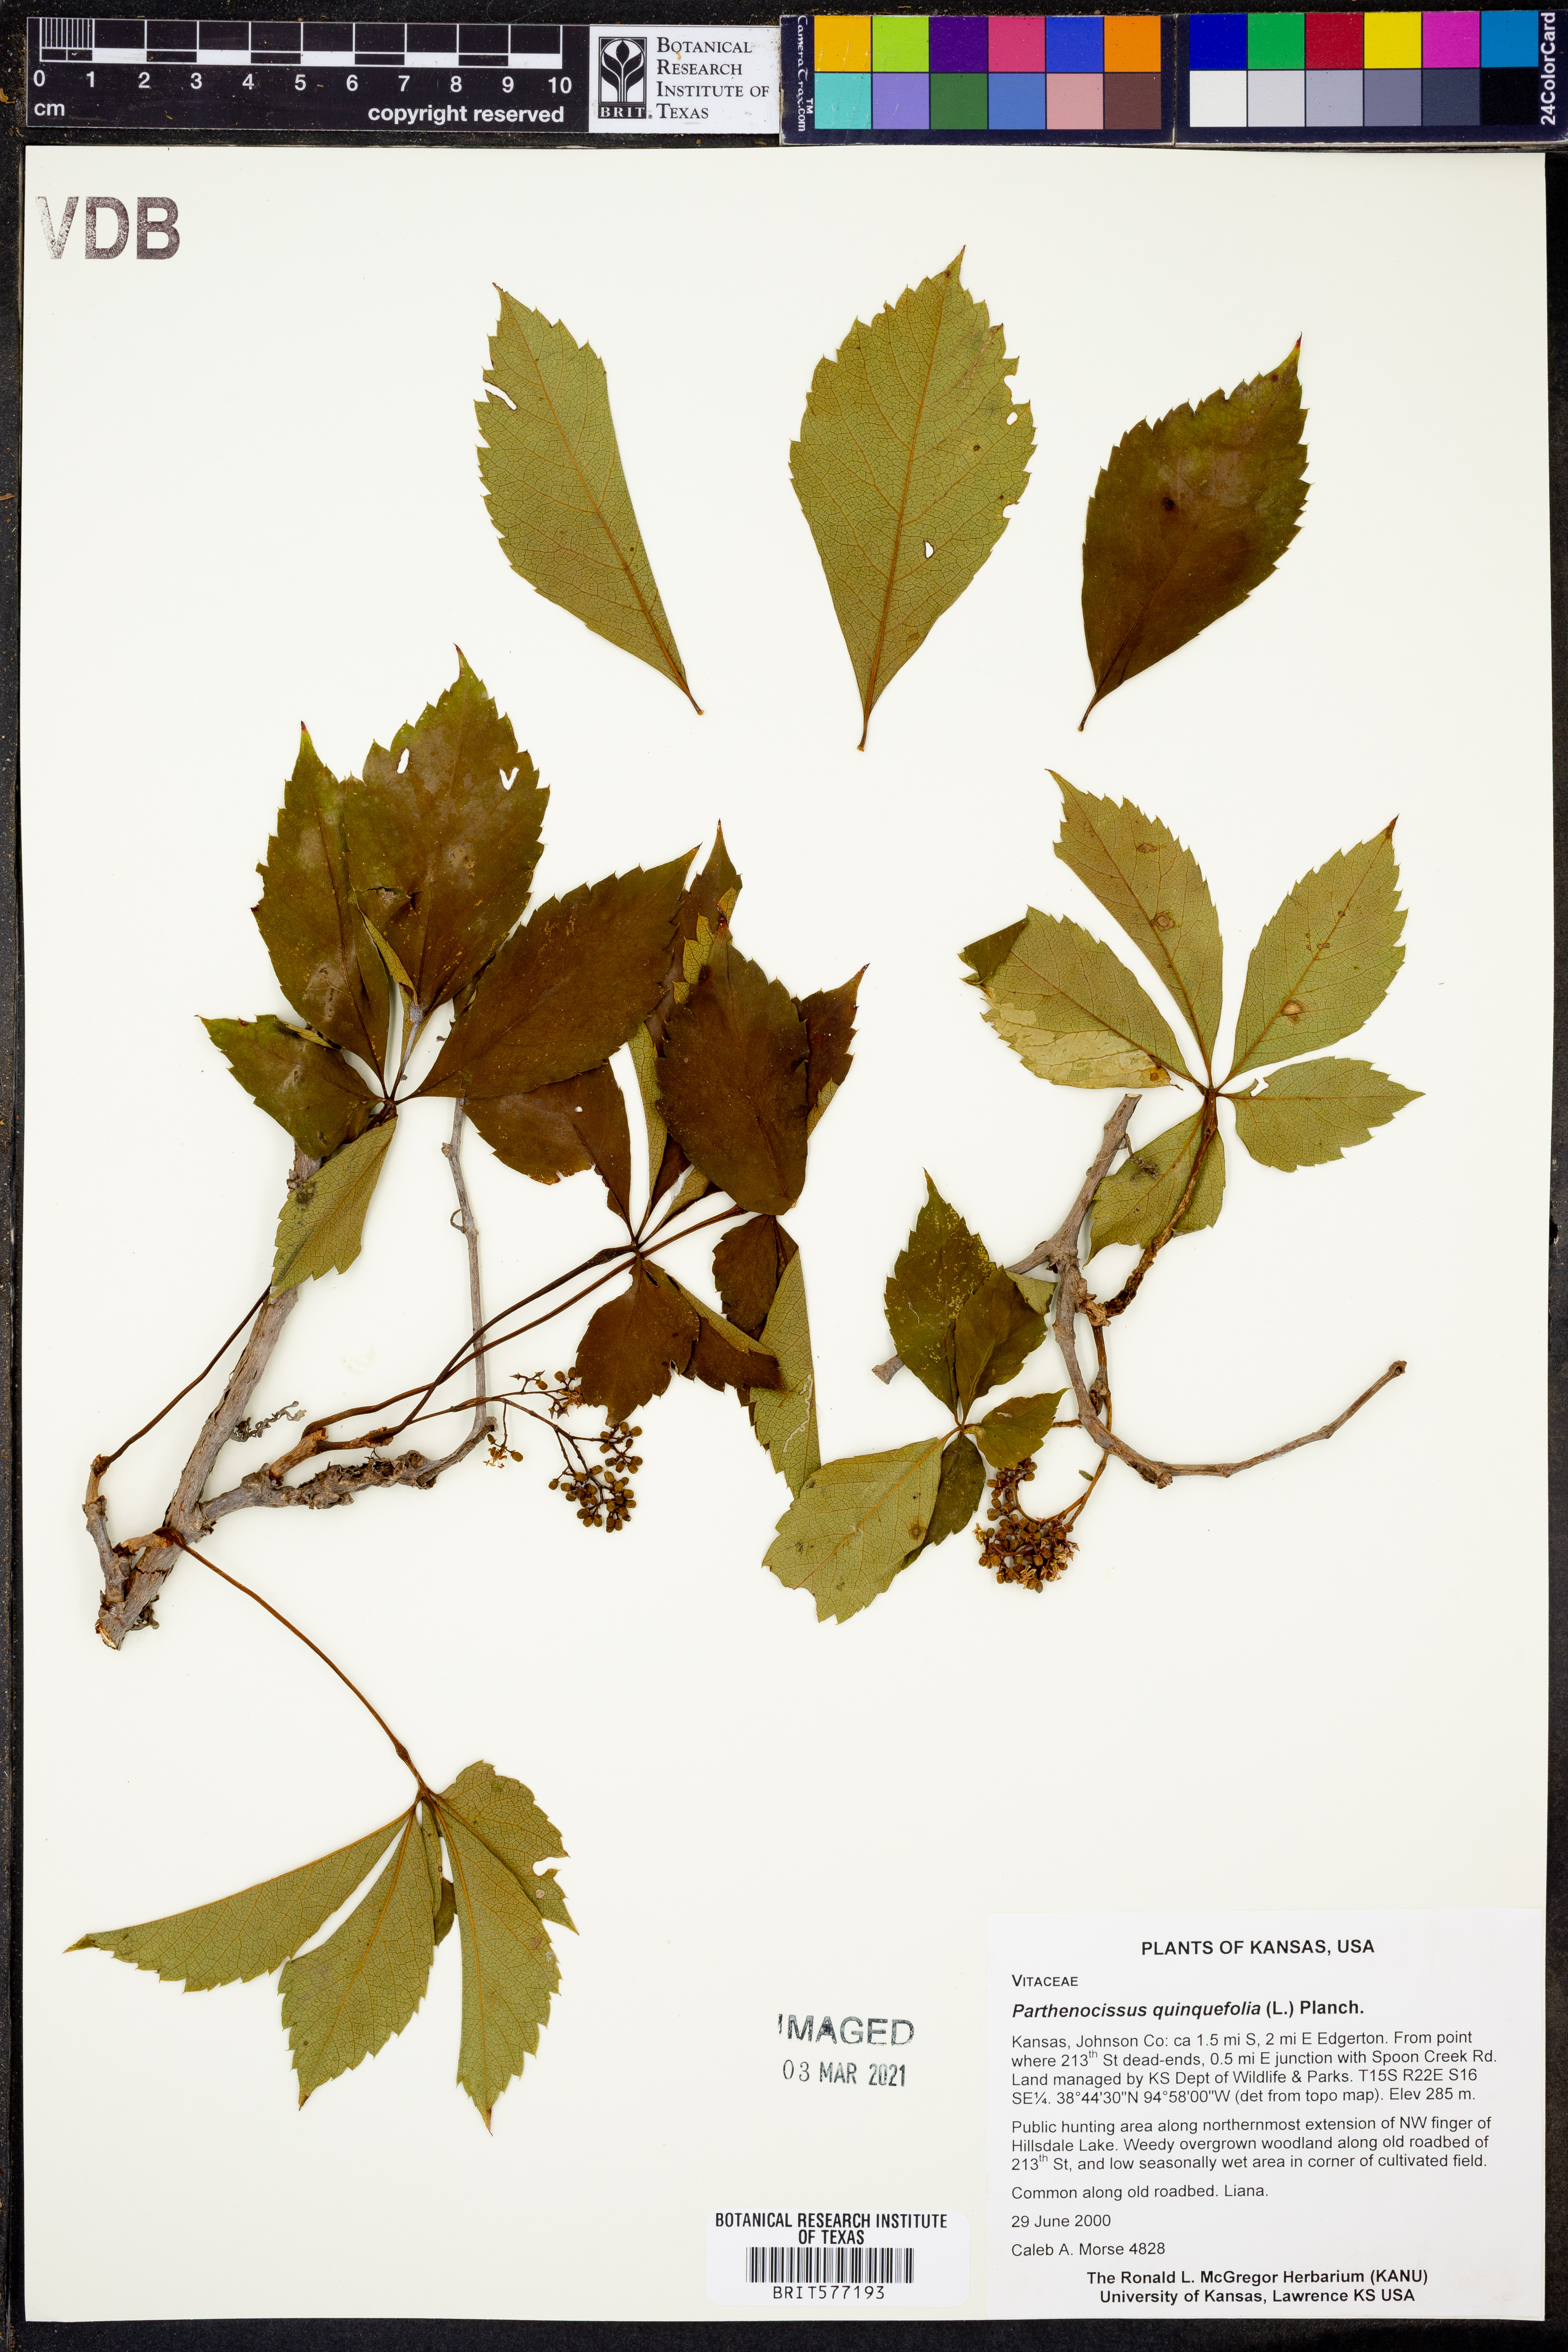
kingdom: Plantae
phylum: Tracheophyta
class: Magnoliopsida
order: Vitales
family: Vitaceae
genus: Parthenocissus
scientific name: Parthenocissus quinquefolia
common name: Virginia-creeper
